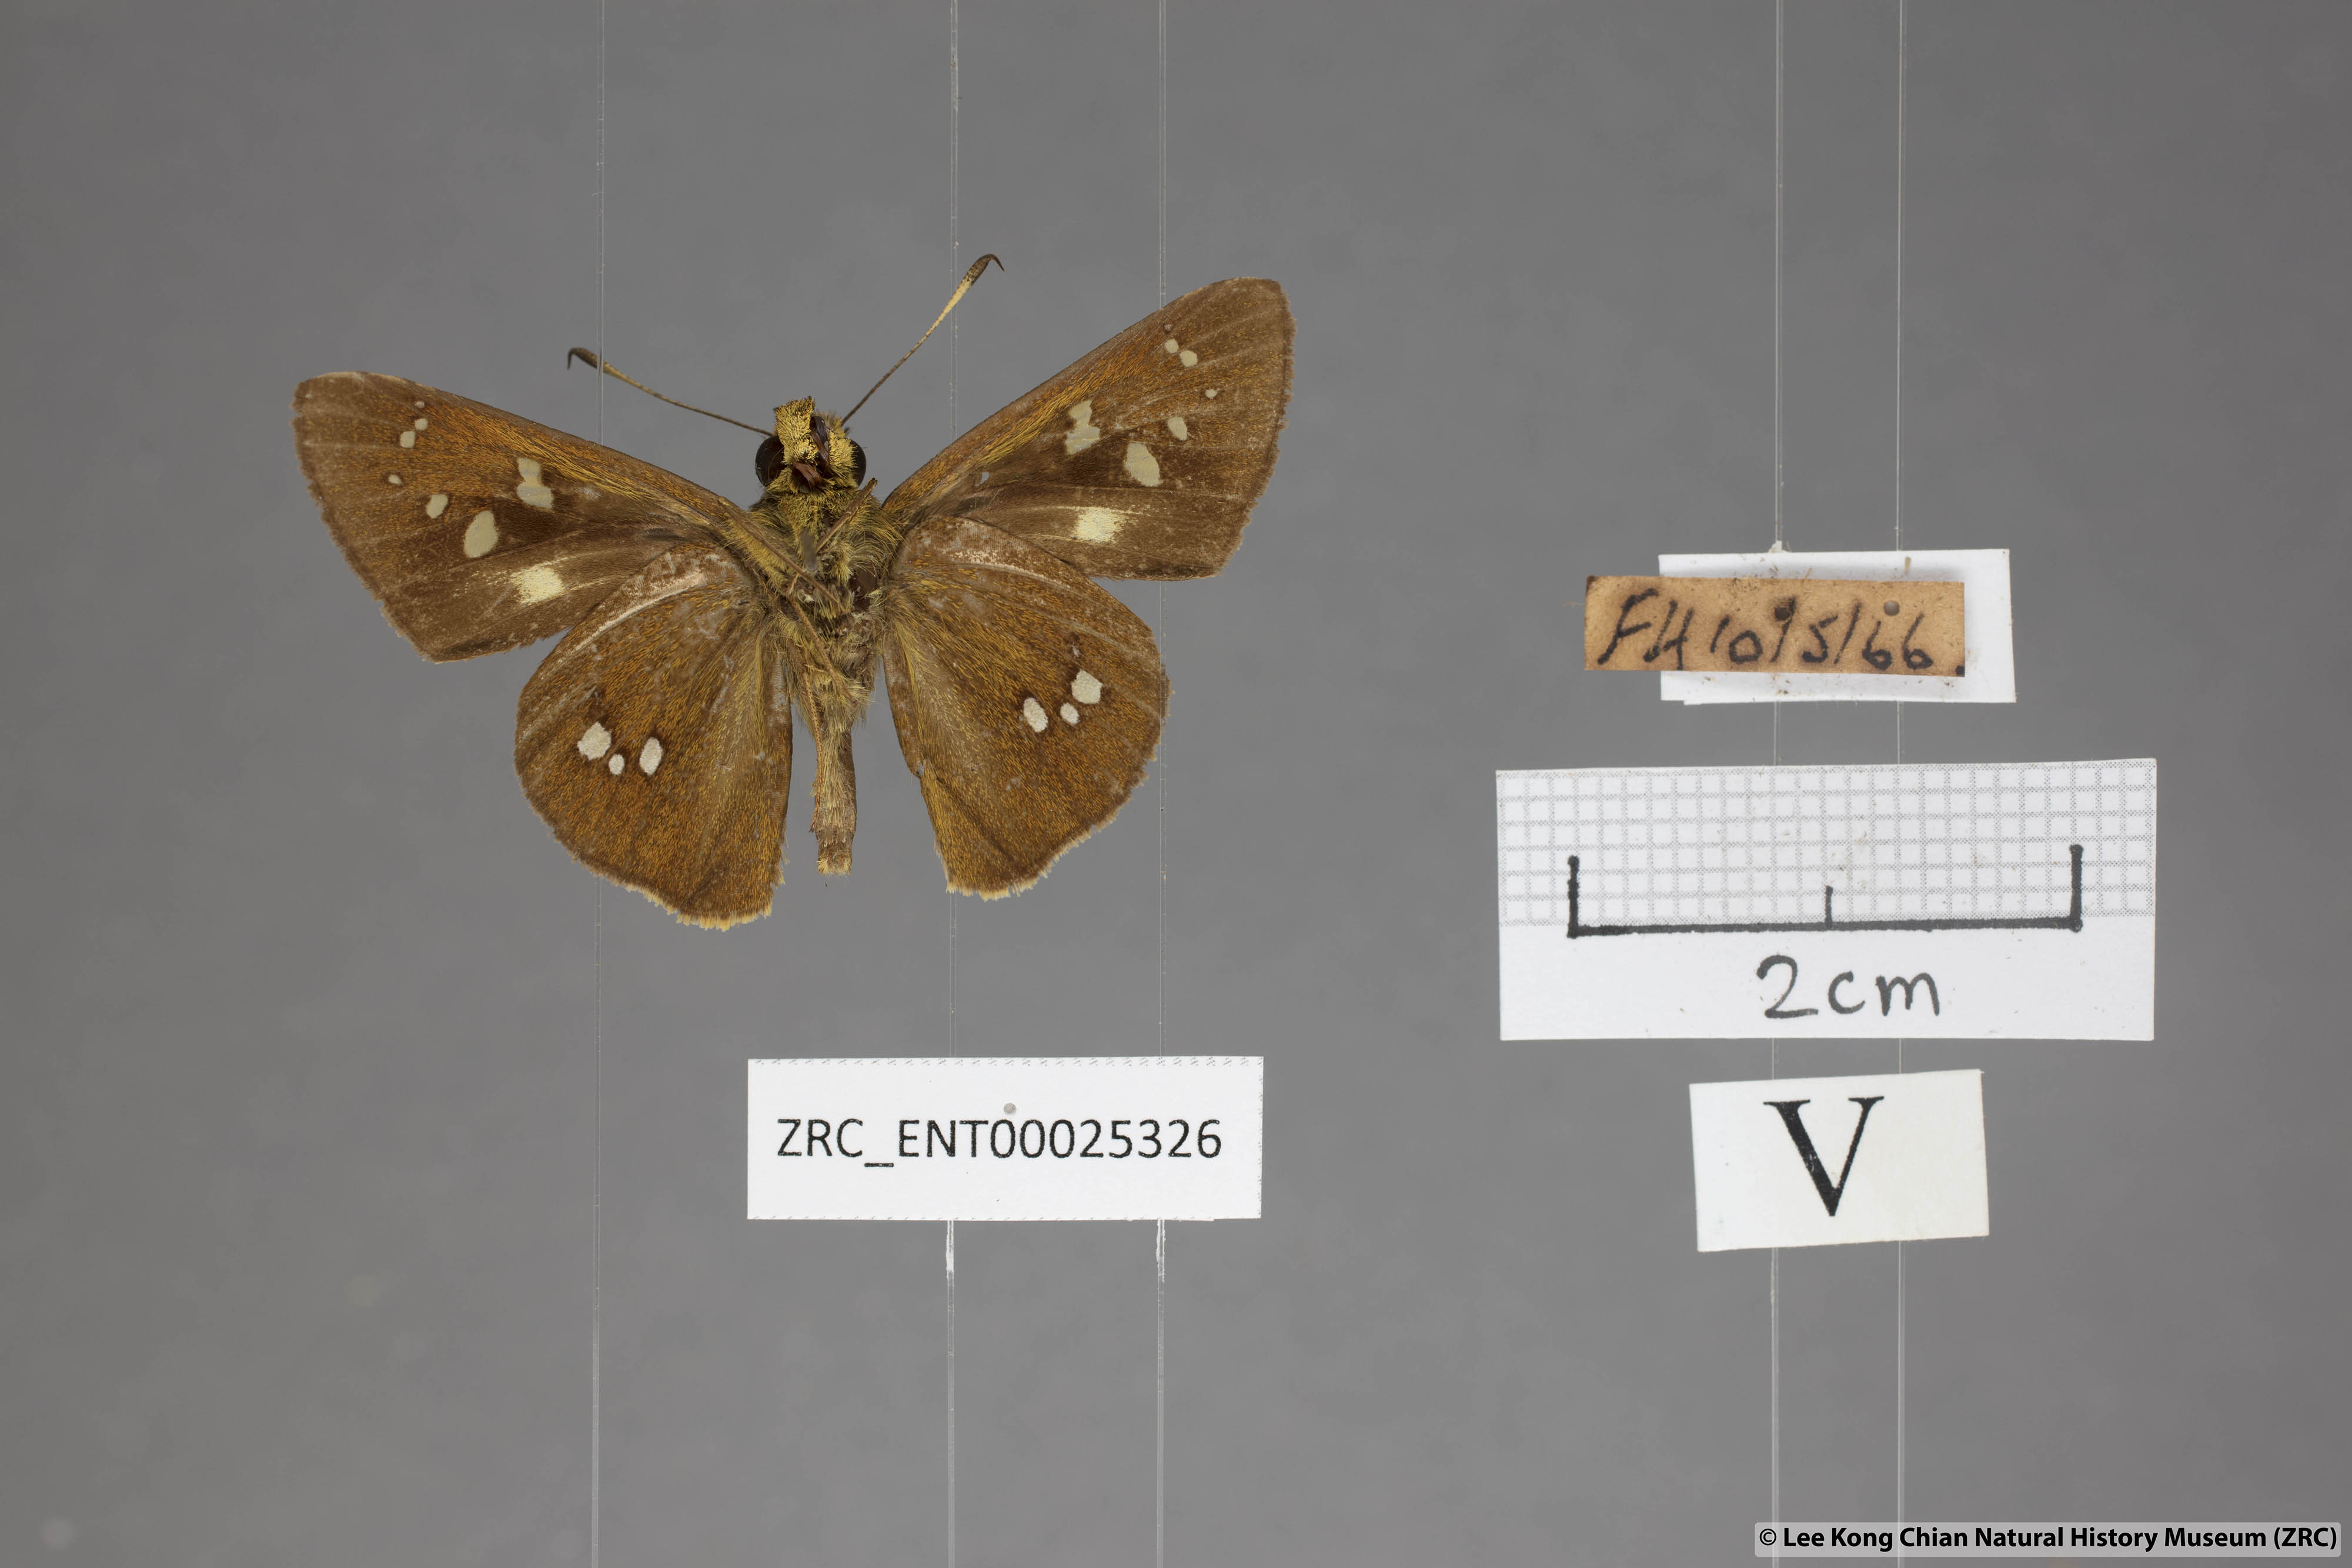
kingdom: Animalia
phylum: Arthropoda
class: Insecta
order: Lepidoptera
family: Hesperiidae
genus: Polytremis
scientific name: Polytremis eltola
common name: Yellow-spot swift
